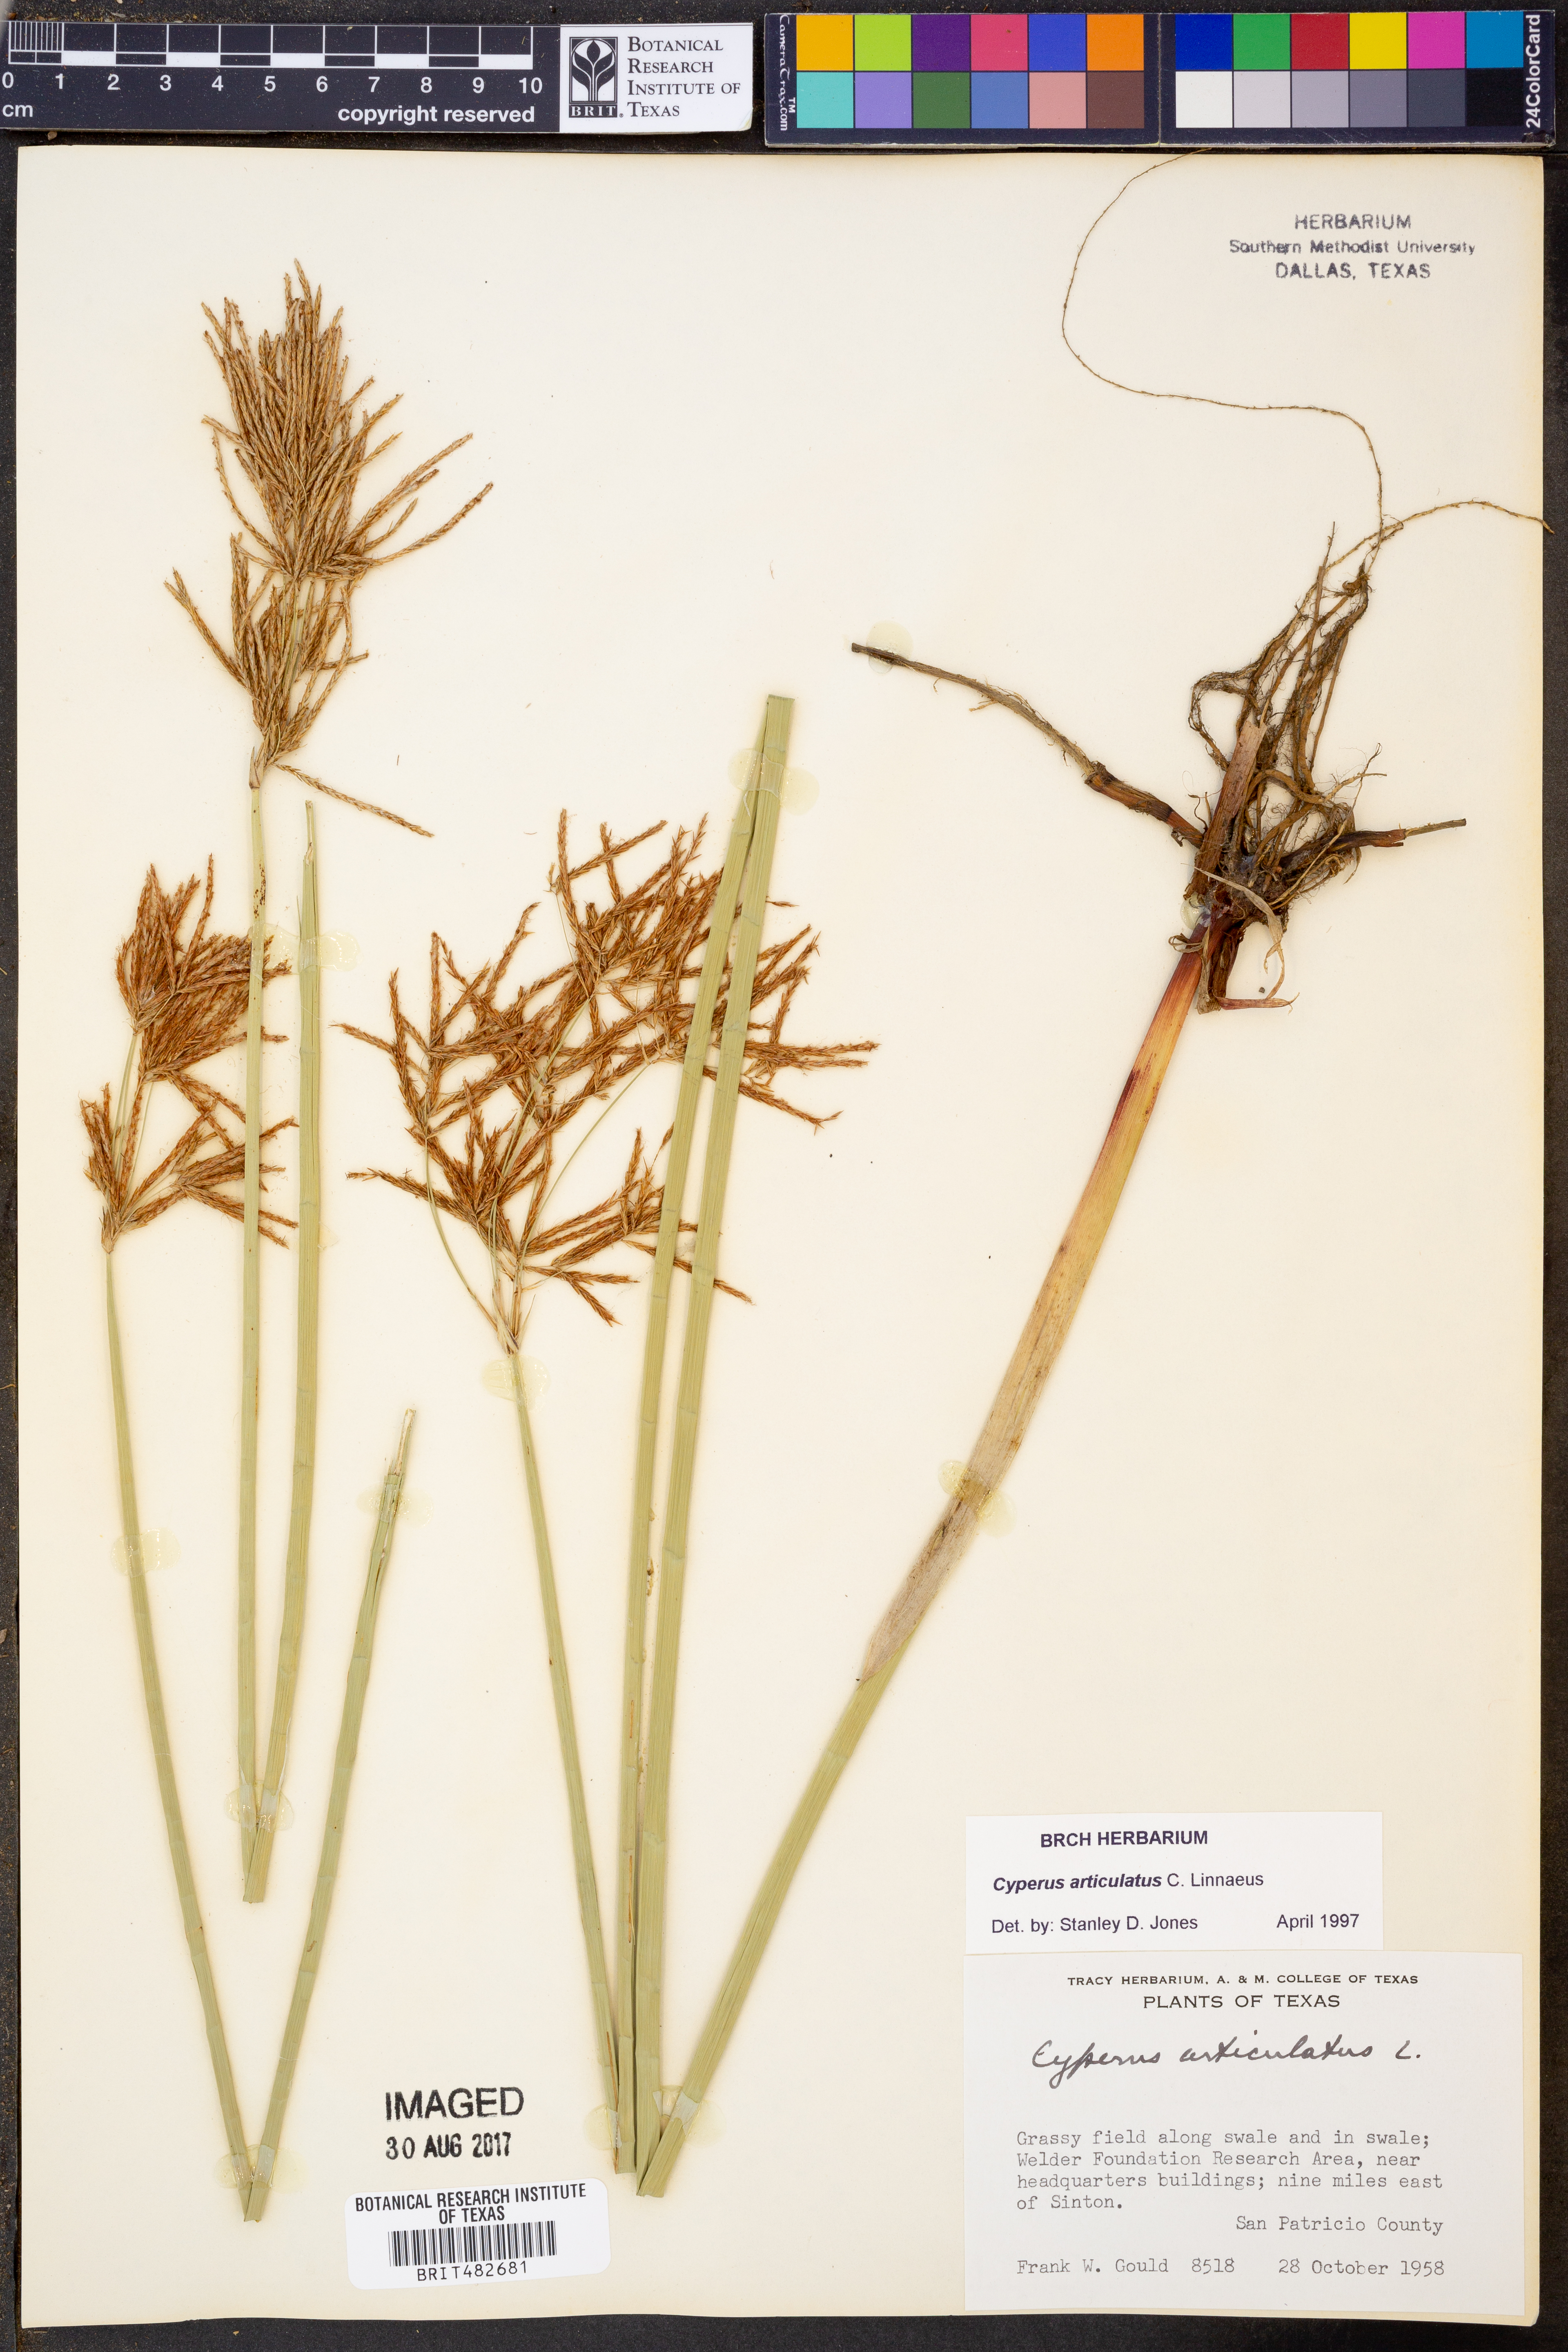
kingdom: Plantae
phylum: Tracheophyta
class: Liliopsida
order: Poales
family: Cyperaceae
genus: Cyperus
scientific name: Cyperus articulatus
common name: Jointed flatsedge
